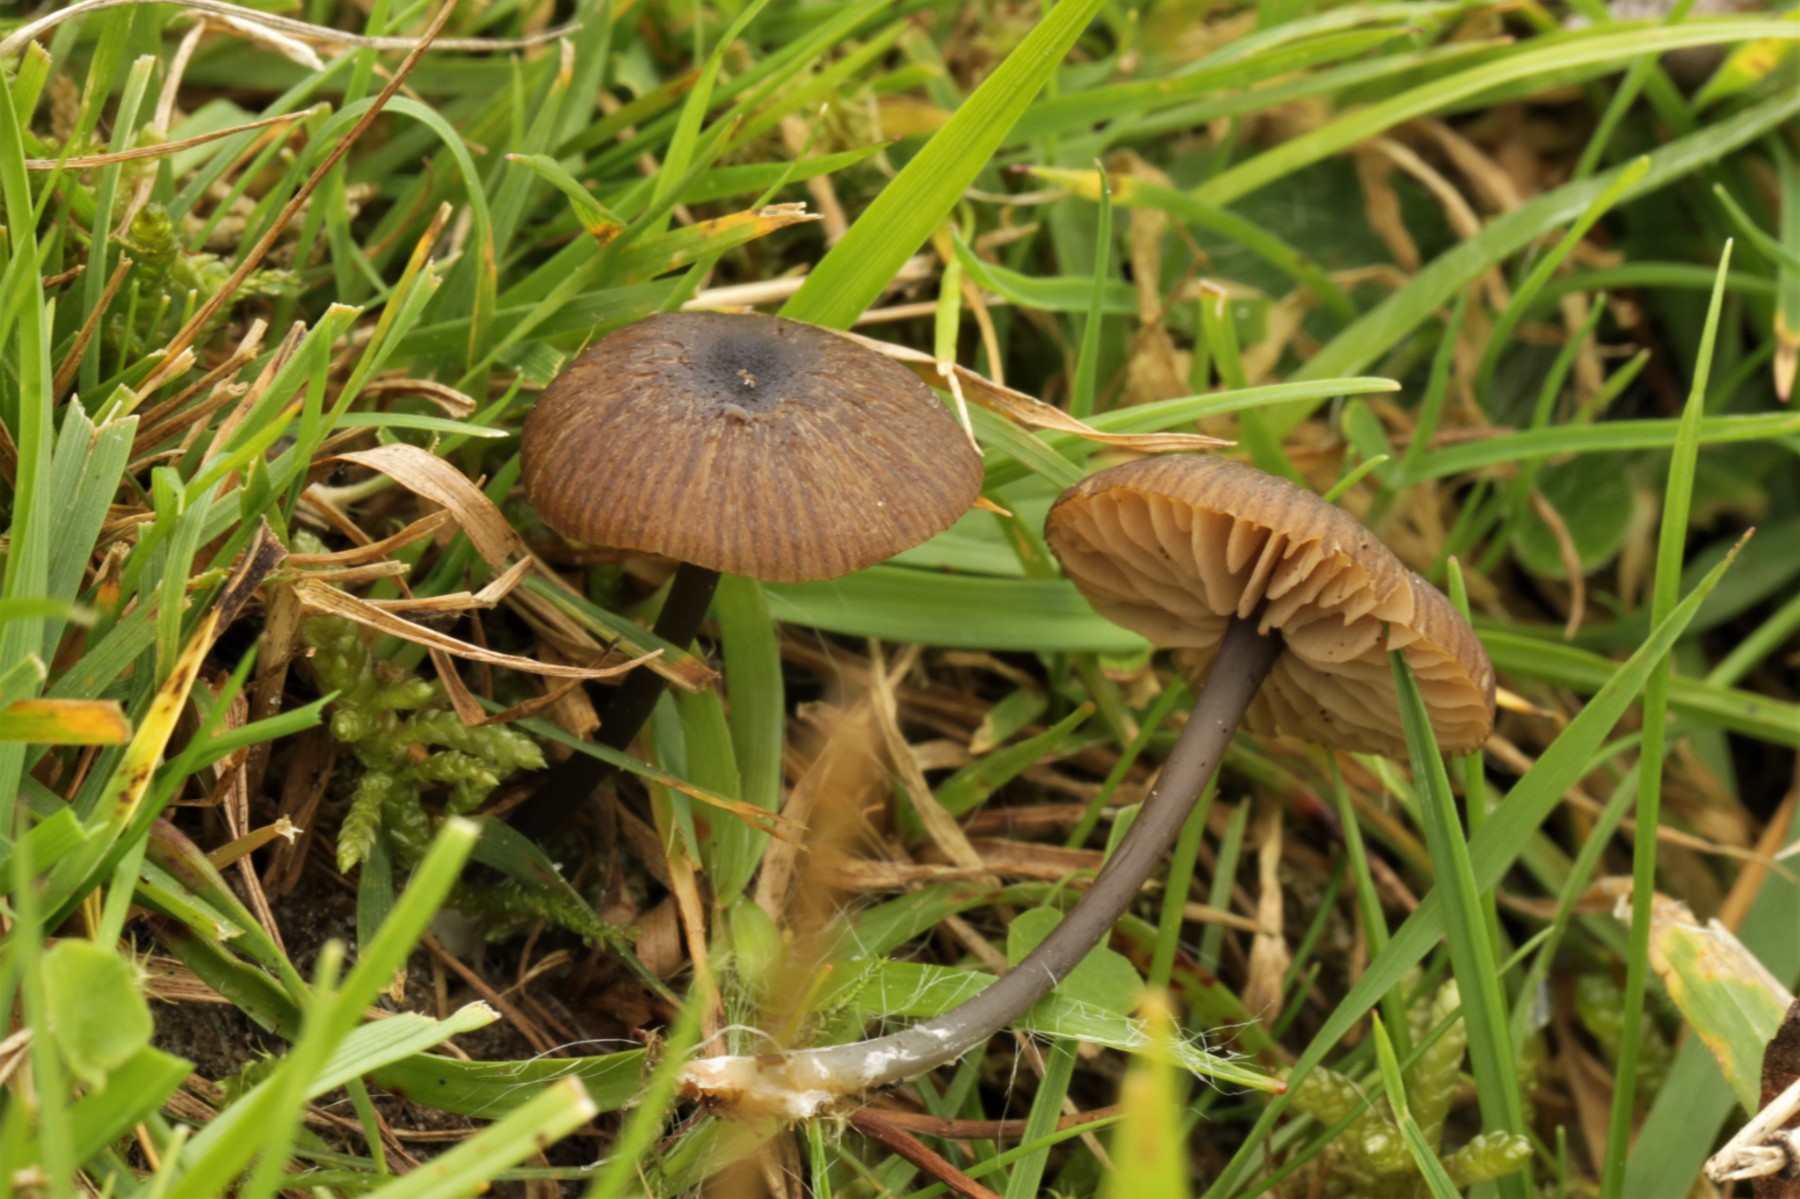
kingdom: Fungi
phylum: Basidiomycota
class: Agaricomycetes
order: Agaricales
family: Entolomataceae
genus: Entoloma
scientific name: Entoloma asprellum
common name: ru rødblad
